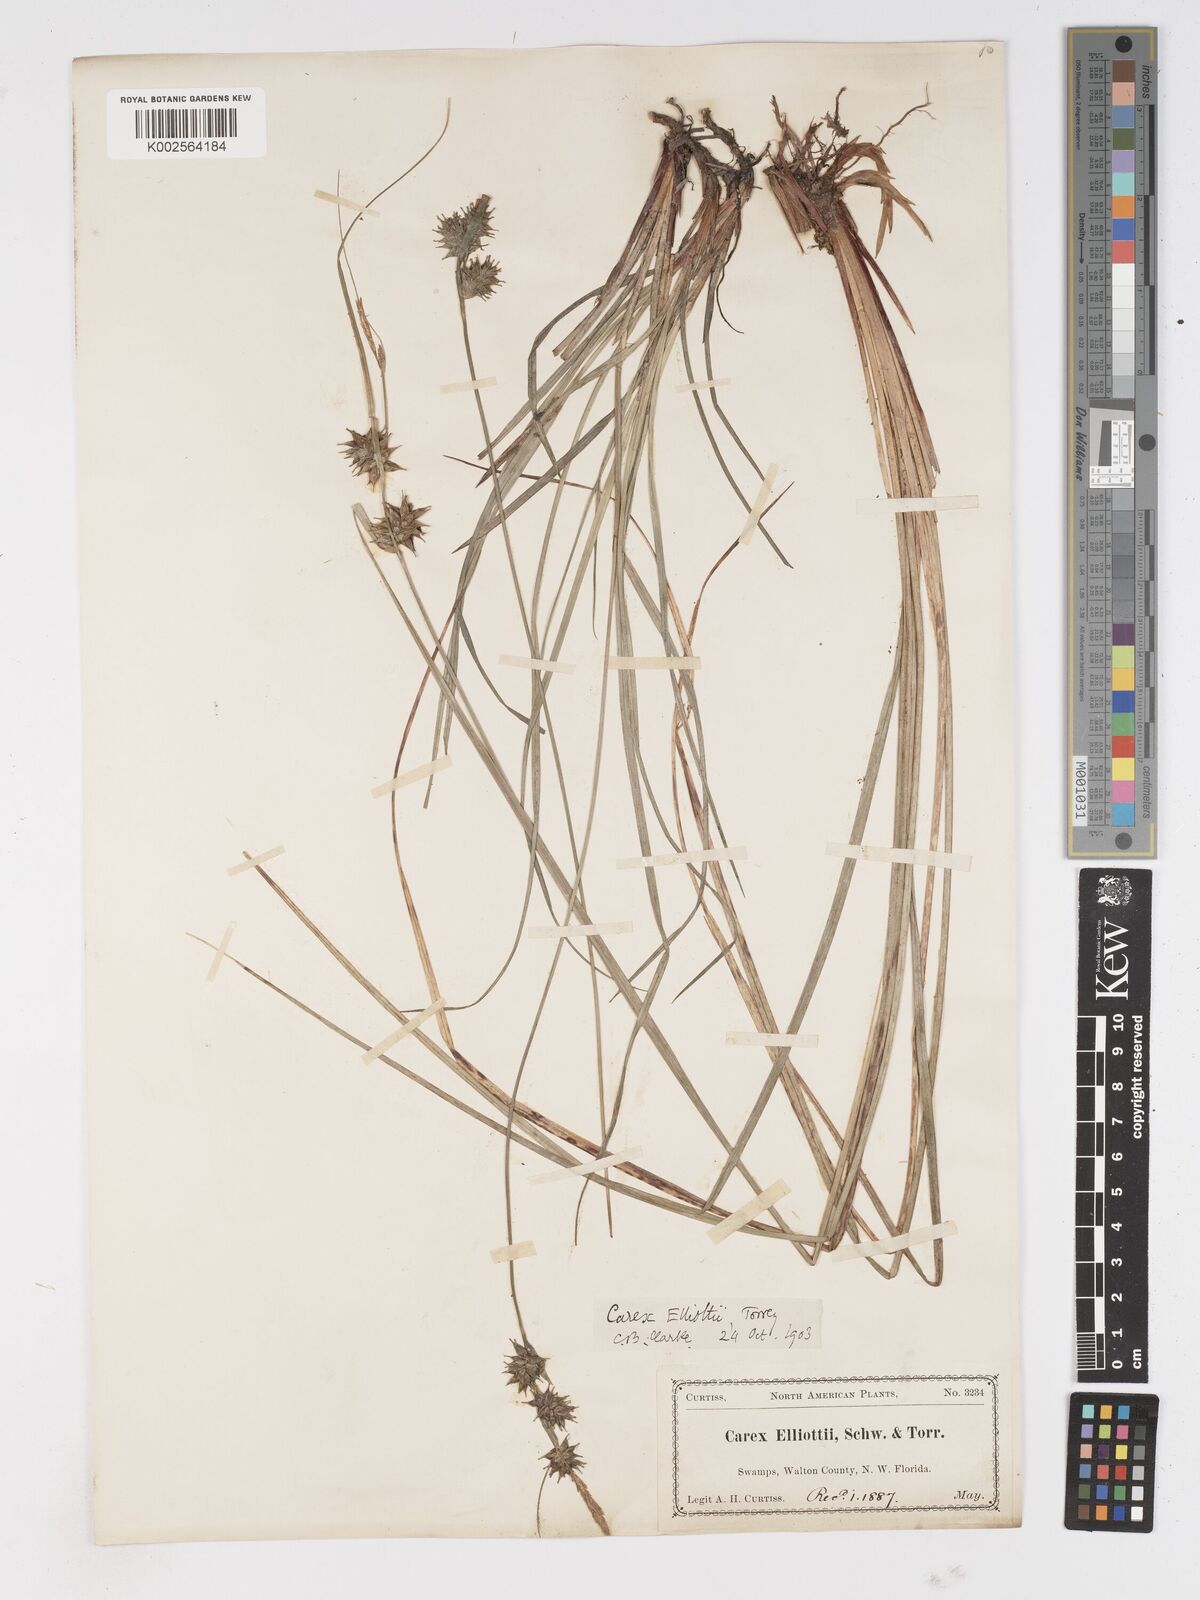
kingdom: Plantae
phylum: Tracheophyta
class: Liliopsida
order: Poales
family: Cyperaceae
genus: Carex
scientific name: Carex elliottii
